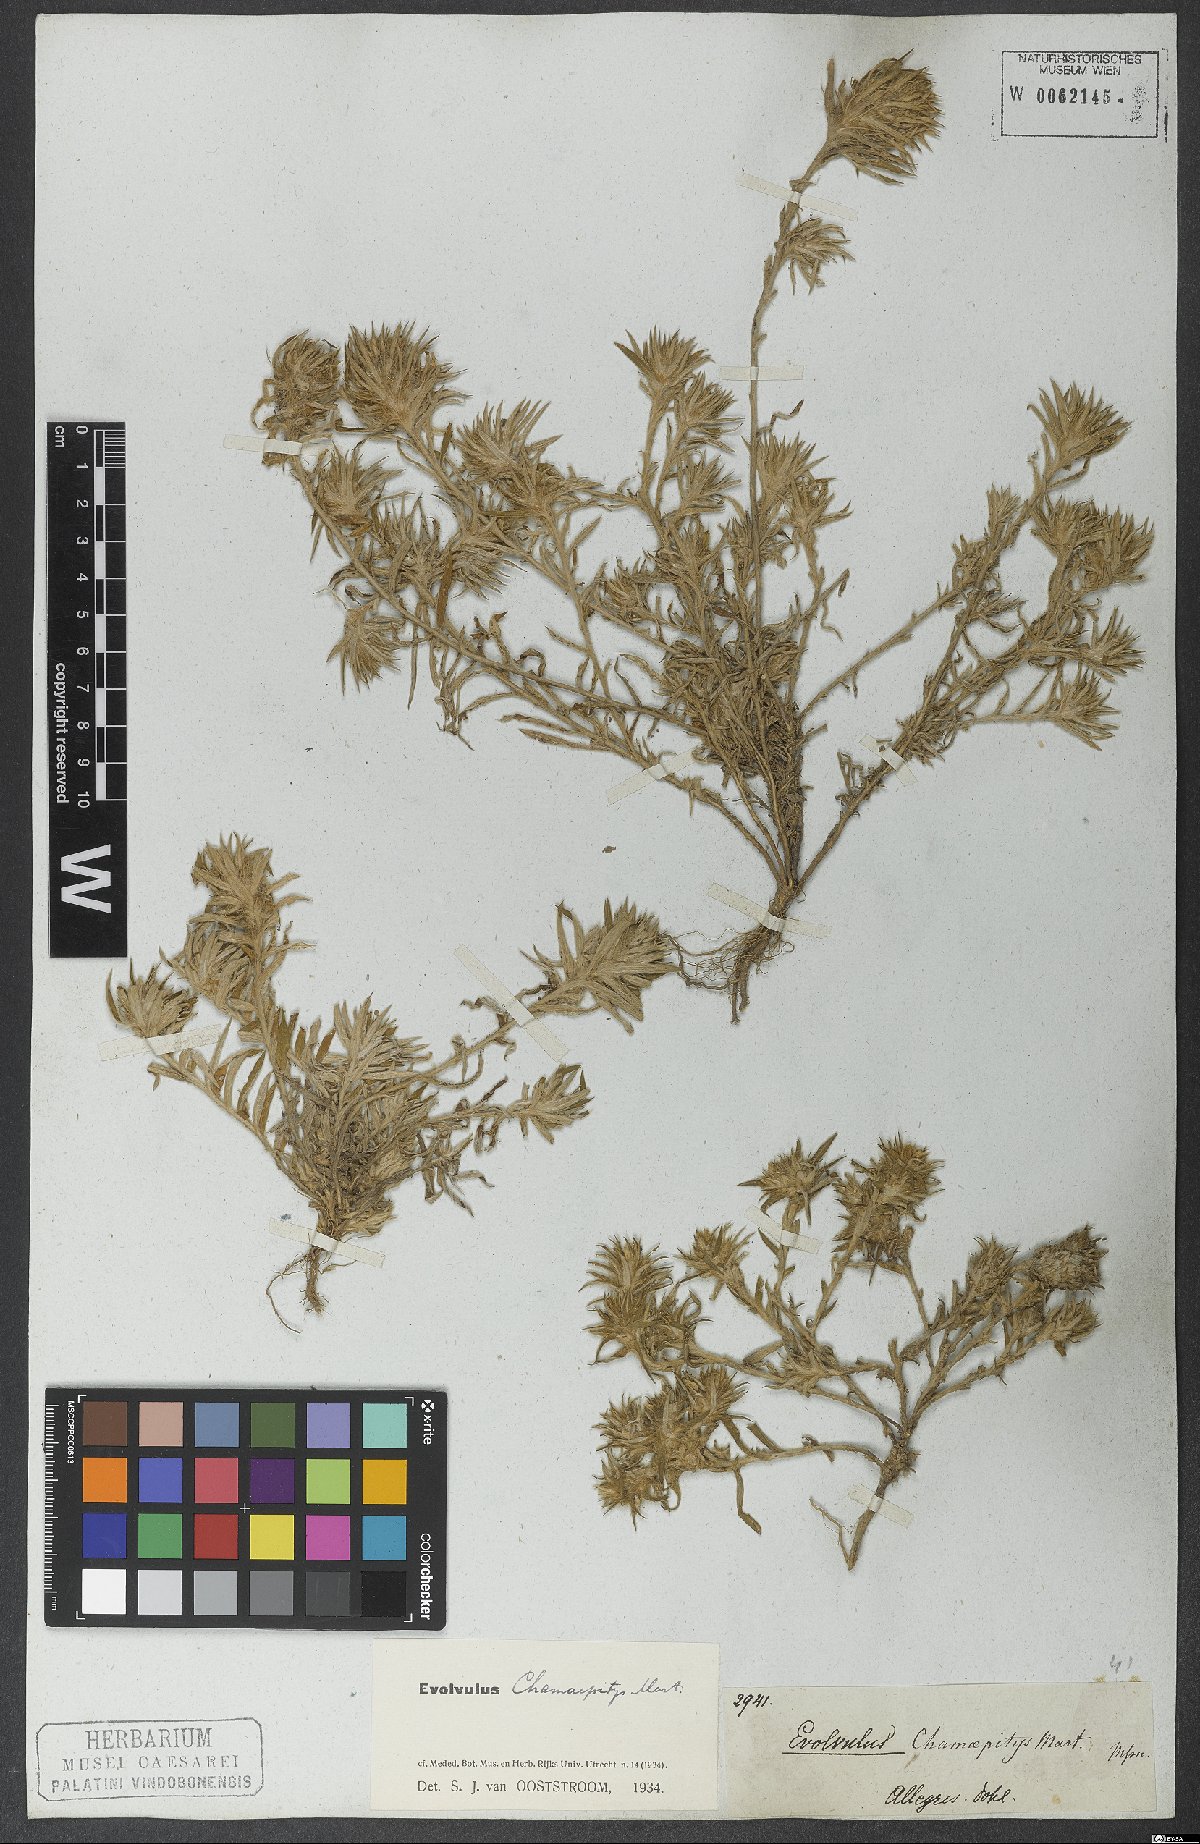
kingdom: Plantae
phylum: Tracheophyta
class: Magnoliopsida
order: Solanales
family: Convolvulaceae
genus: Evolvulus
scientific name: Evolvulus chamaepitys
